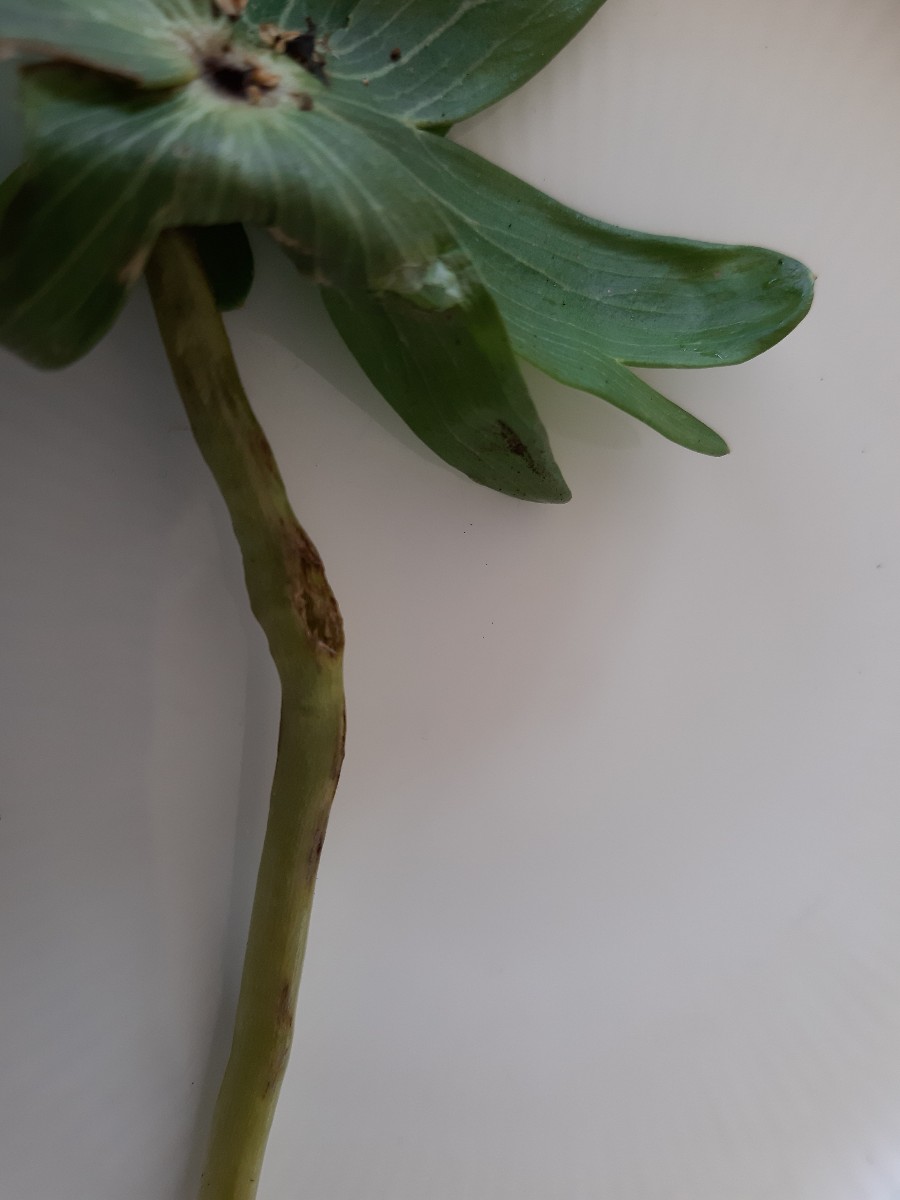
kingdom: Fungi
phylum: Basidiomycota
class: Ustilaginomycetes
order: Urocystidales
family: Urocystidaceae
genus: Urocystis
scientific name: Urocystis eranthidis
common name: erantis-brand
